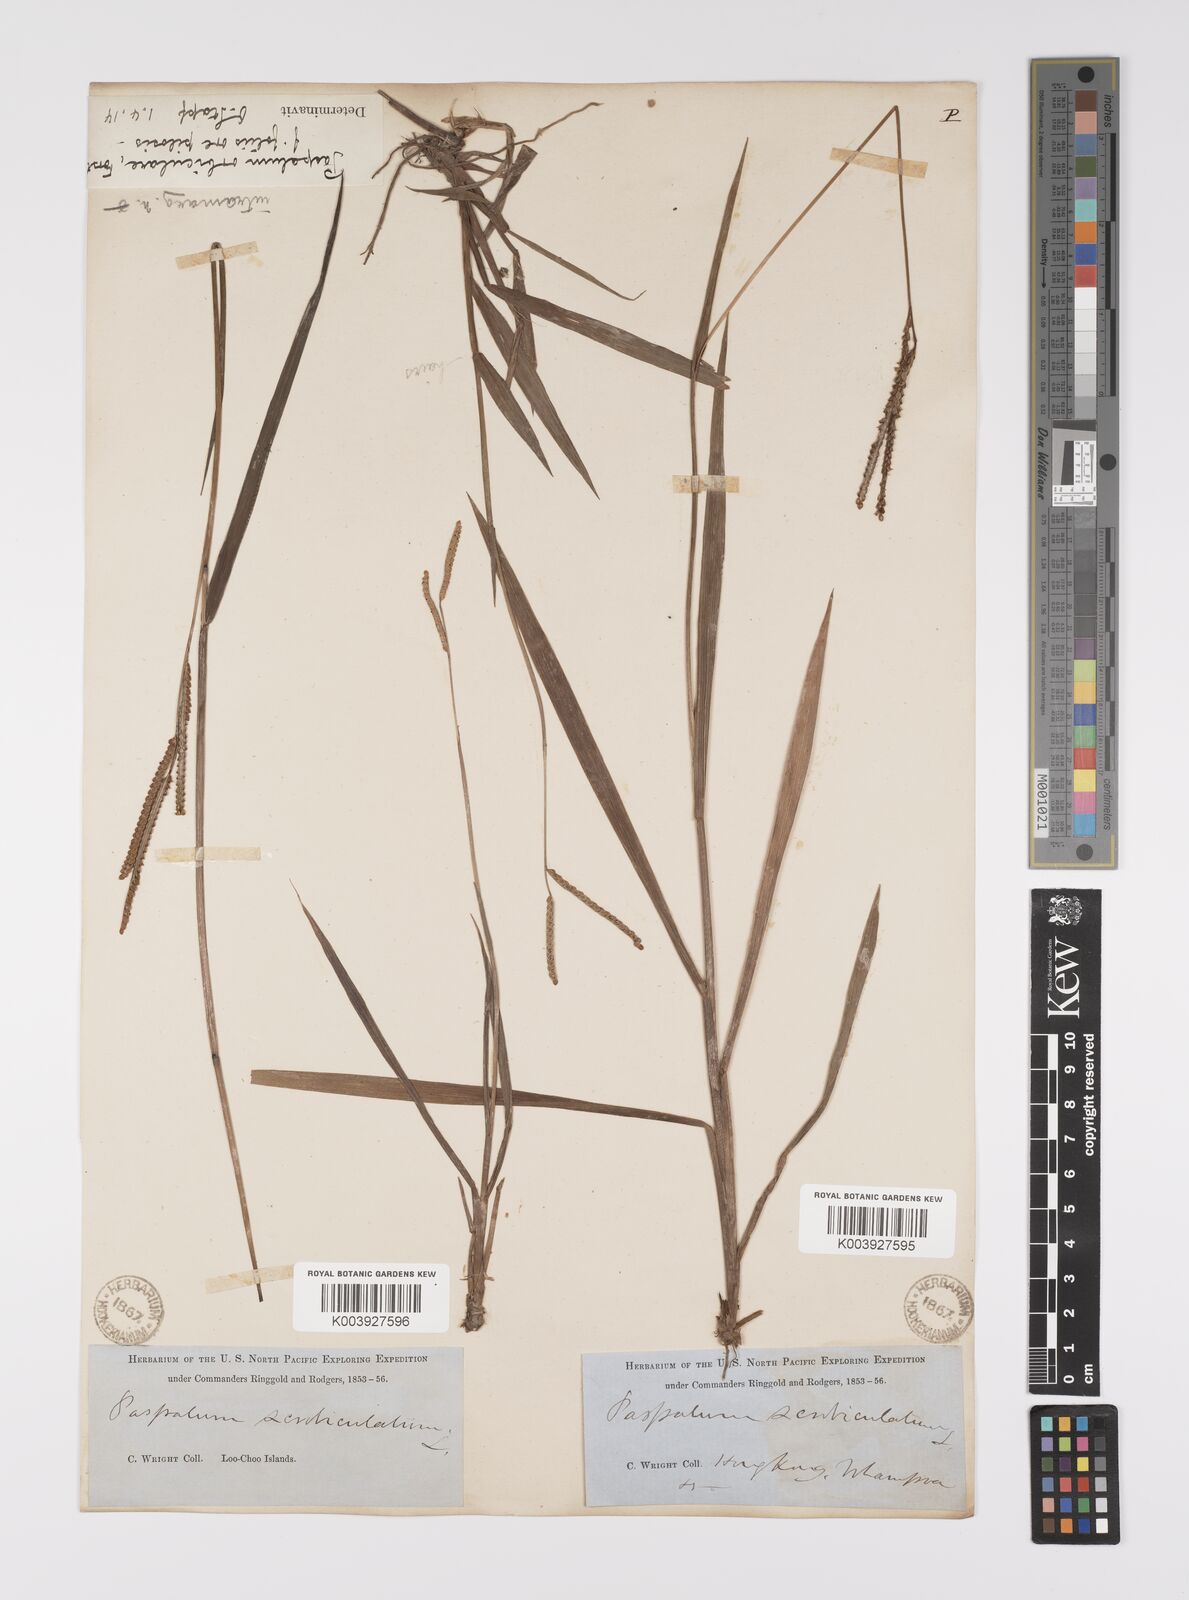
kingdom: Plantae
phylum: Tracheophyta
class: Liliopsida
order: Poales
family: Poaceae
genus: Paspalum
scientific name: Paspalum scrobiculatum
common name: Kodo millet
